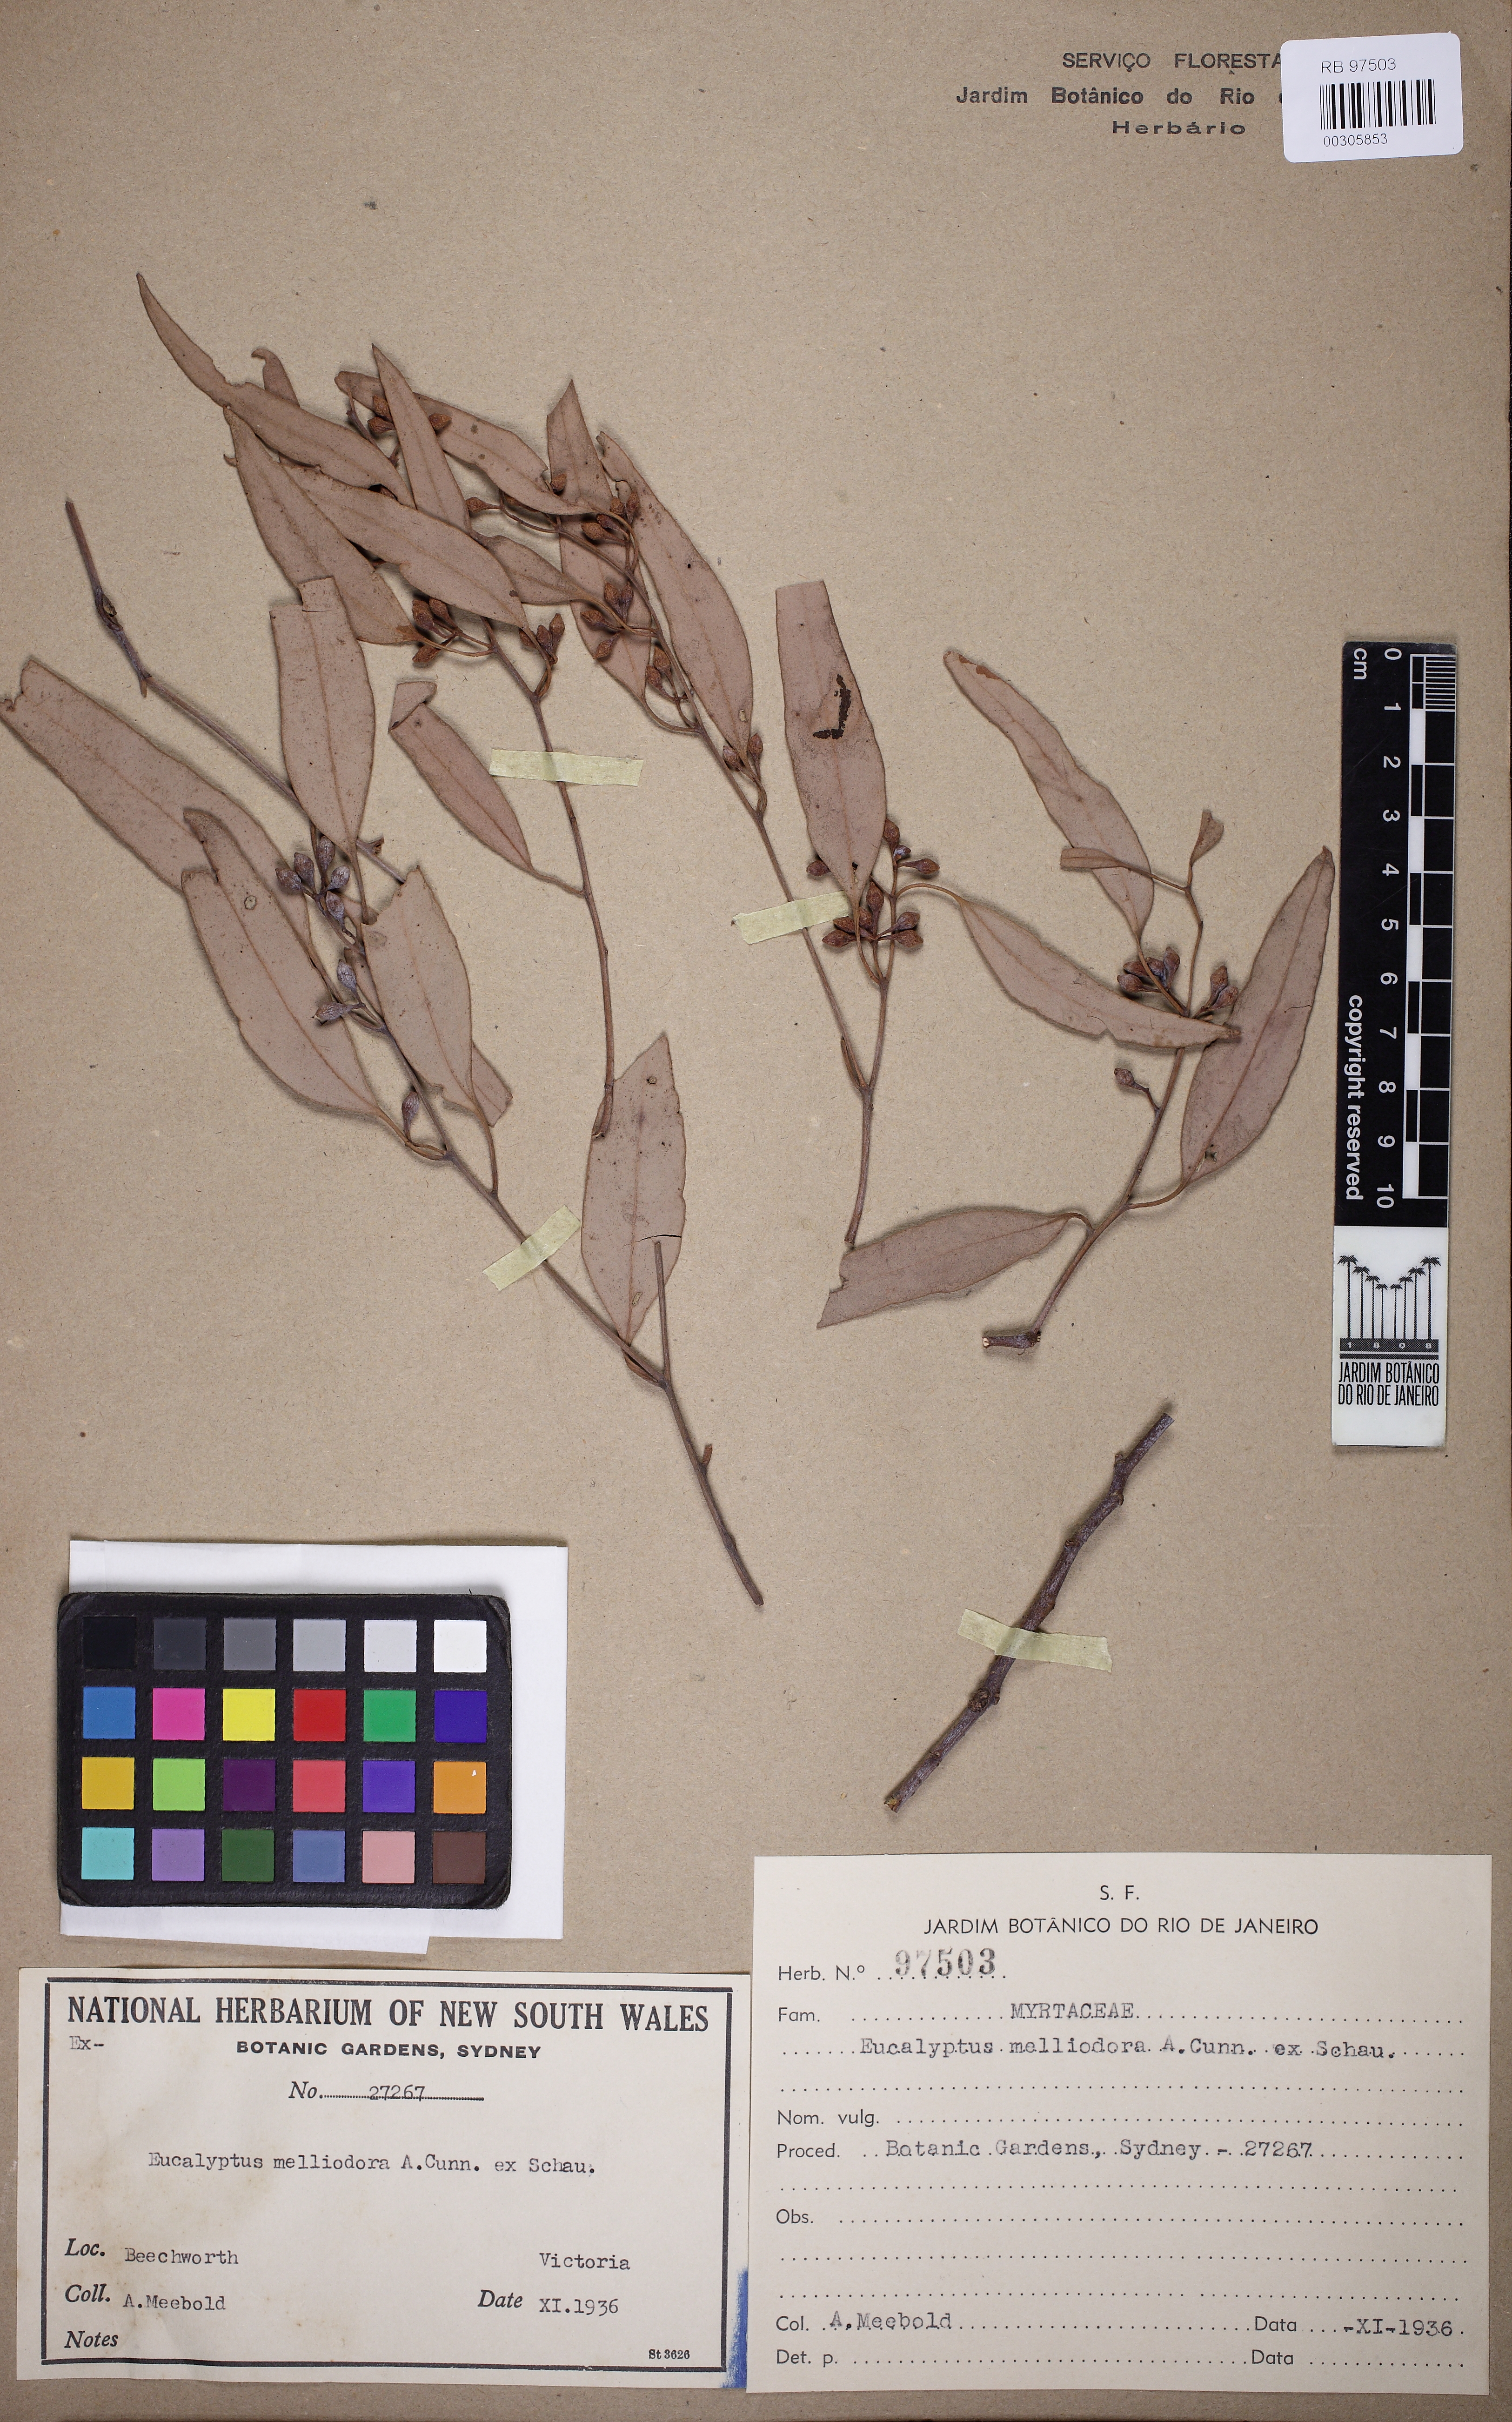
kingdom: Plantae
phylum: Tracheophyta
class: Magnoliopsida
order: Myrtales
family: Myrtaceae
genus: Eucalyptus
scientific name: Eucalyptus melliodora
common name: Yellow ironbox
